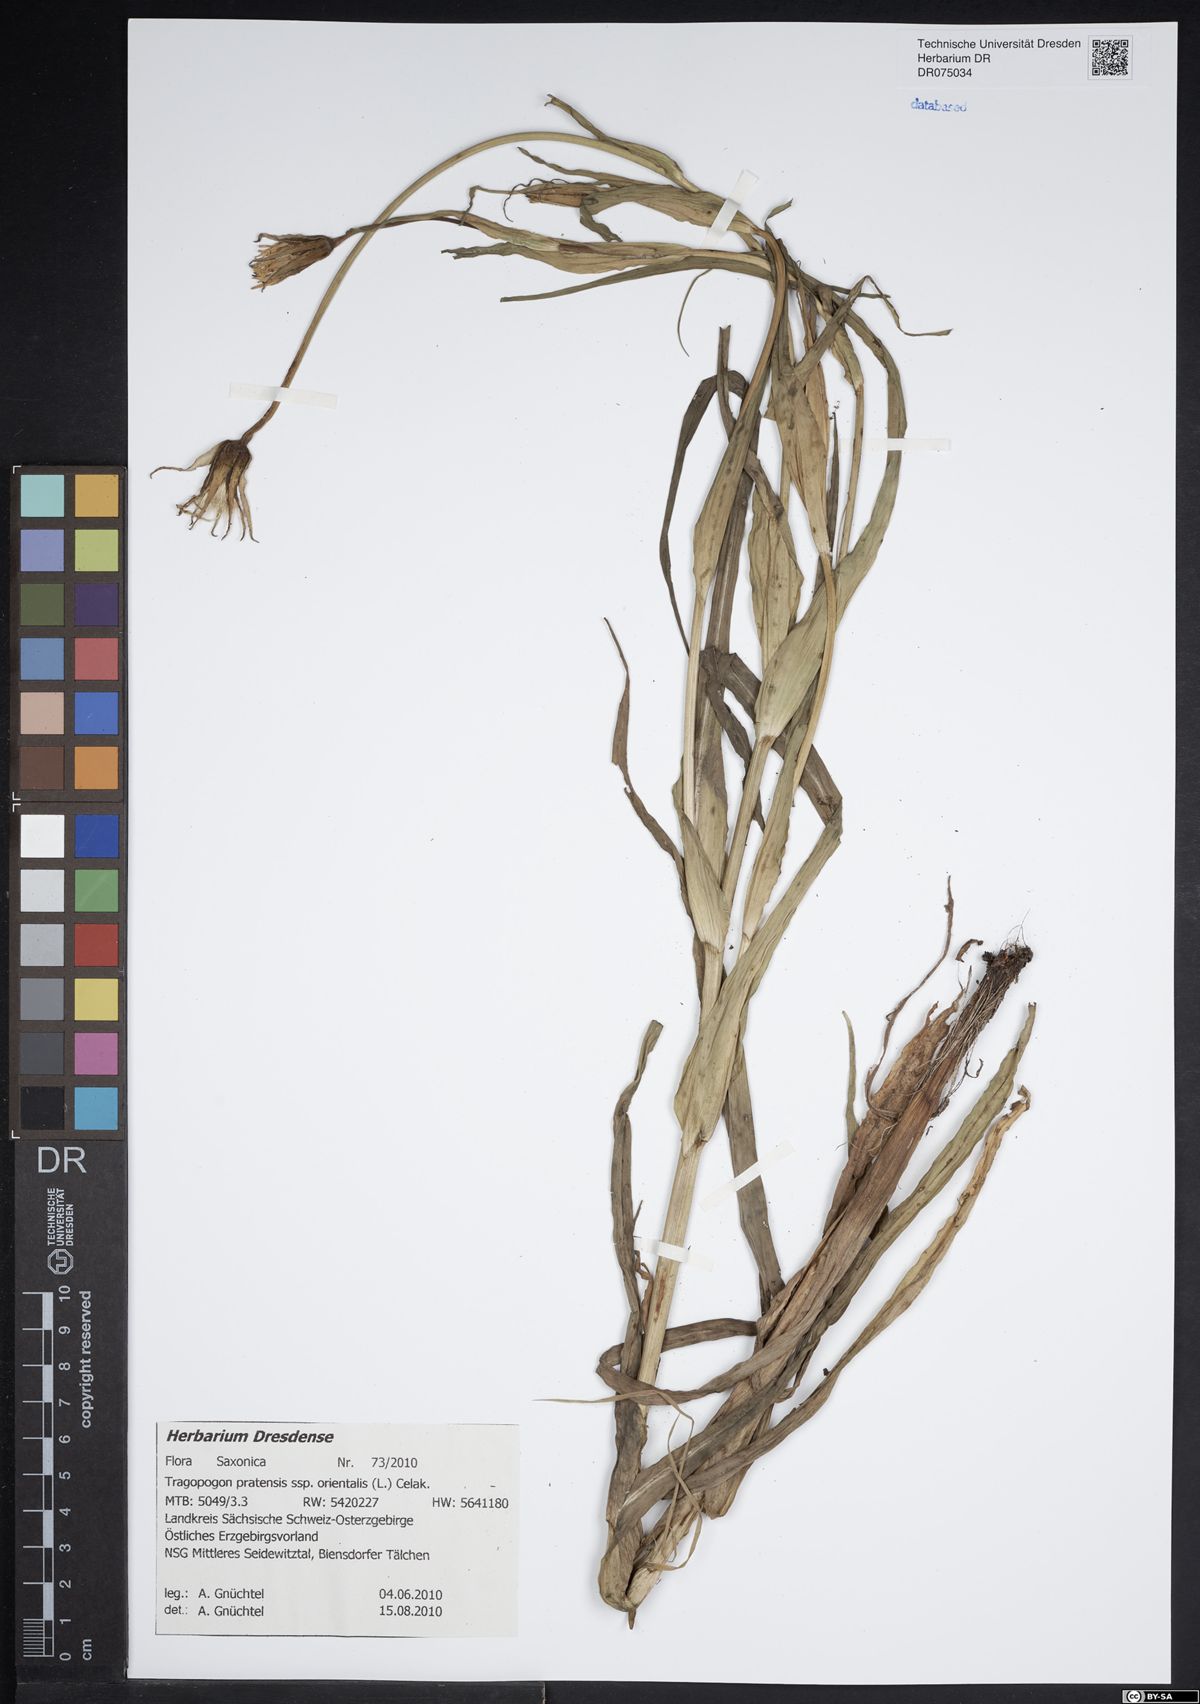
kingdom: Plantae
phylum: Tracheophyta
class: Magnoliopsida
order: Asterales
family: Asteraceae
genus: Tragopogon
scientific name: Tragopogon orientalis
